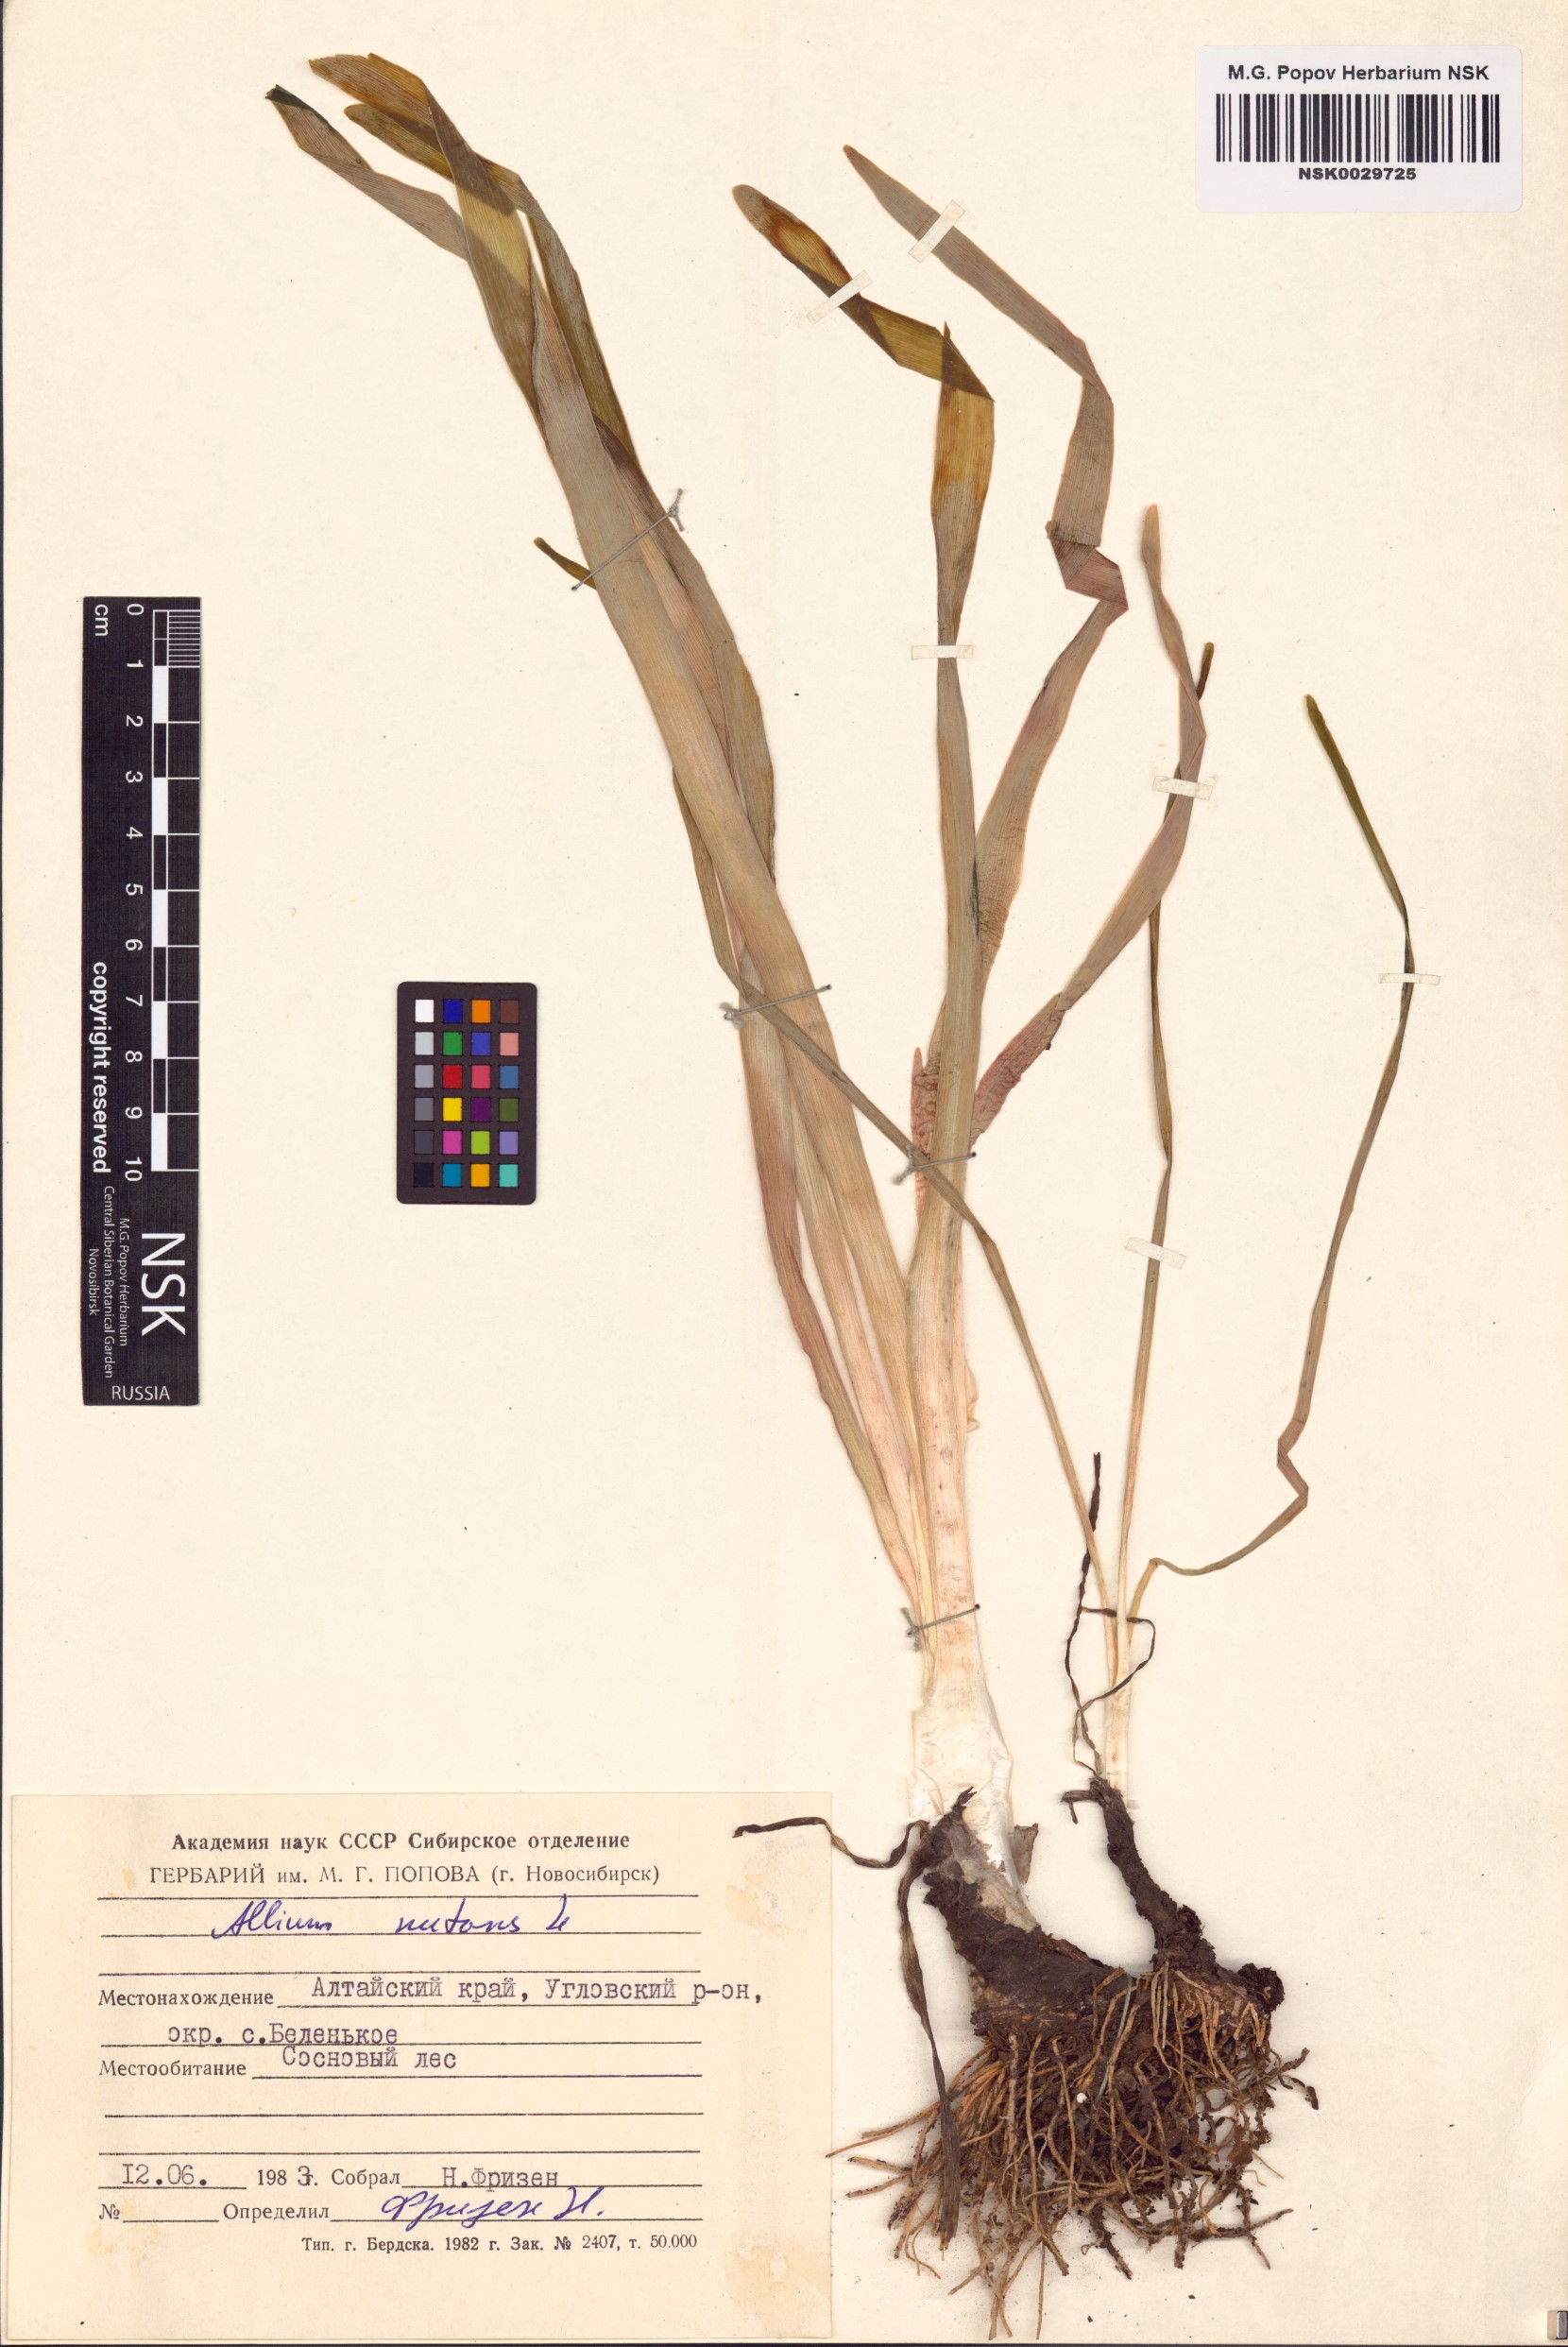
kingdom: Plantae
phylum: Tracheophyta
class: Liliopsida
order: Asparagales
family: Amaryllidaceae
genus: Allium
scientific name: Allium nutans
